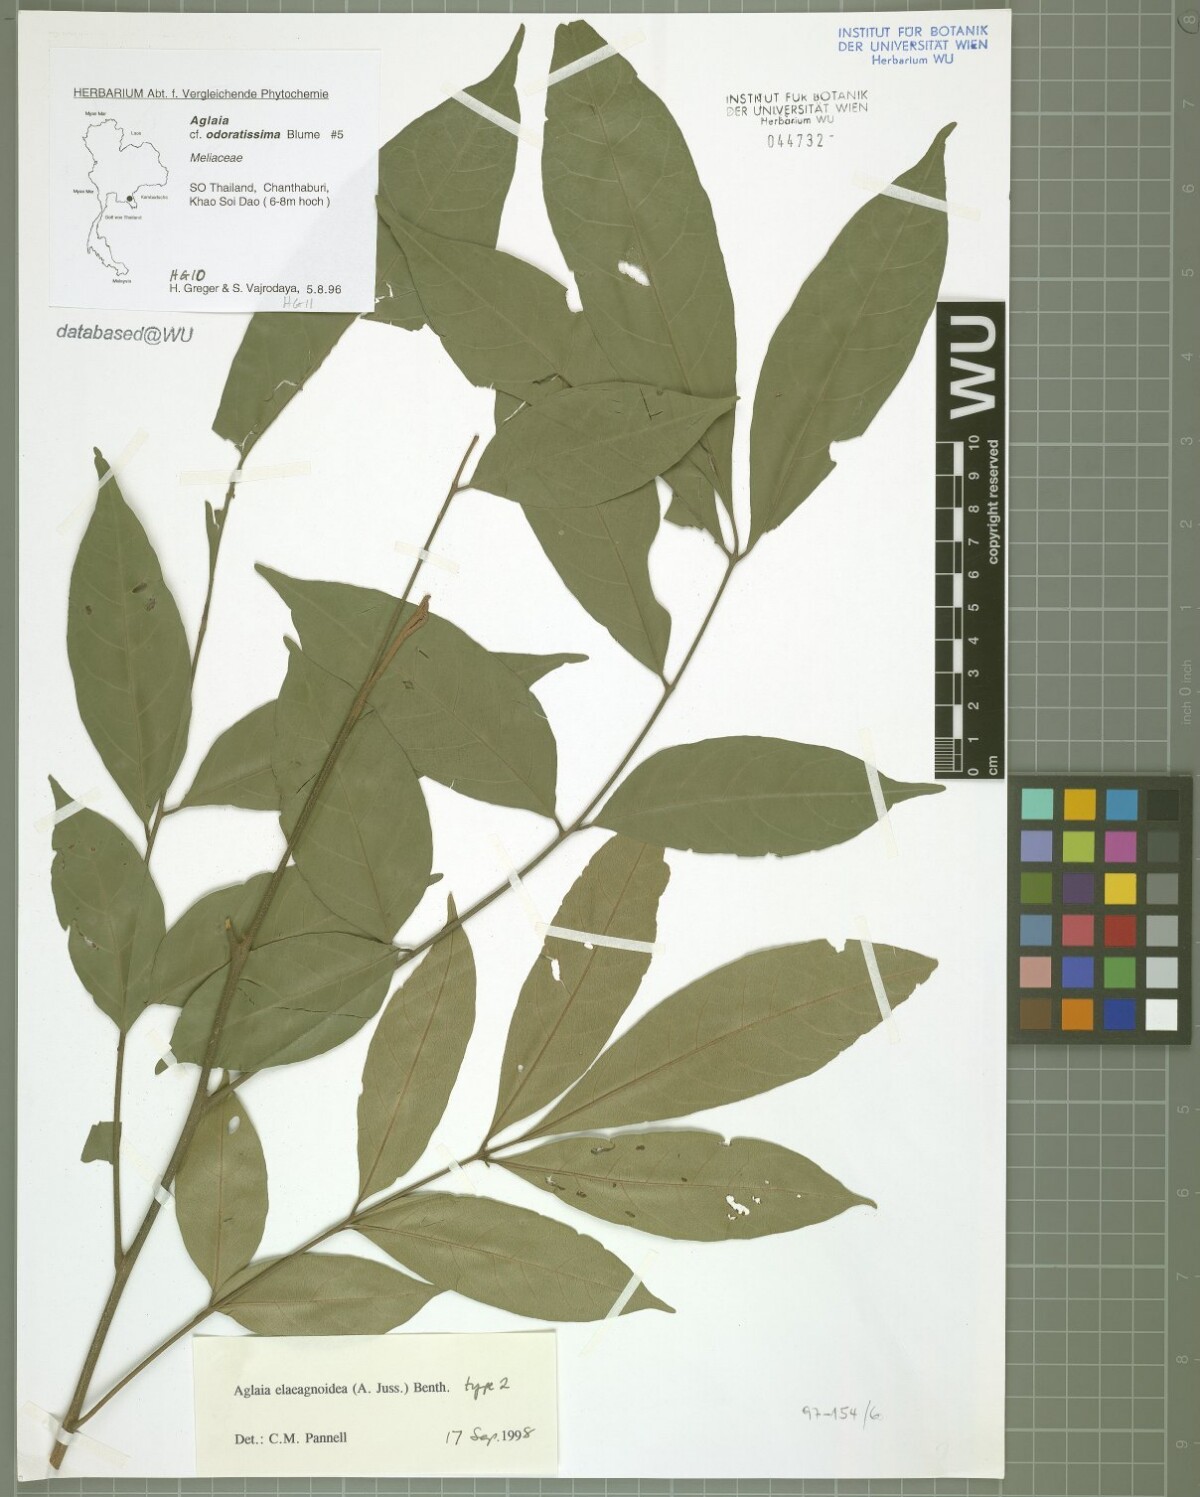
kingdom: Plantae
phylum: Tracheophyta
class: Magnoliopsida
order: Sapindales
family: Meliaceae
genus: Aglaia
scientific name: Aglaia elaeagnoidea
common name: Droopyleaf
